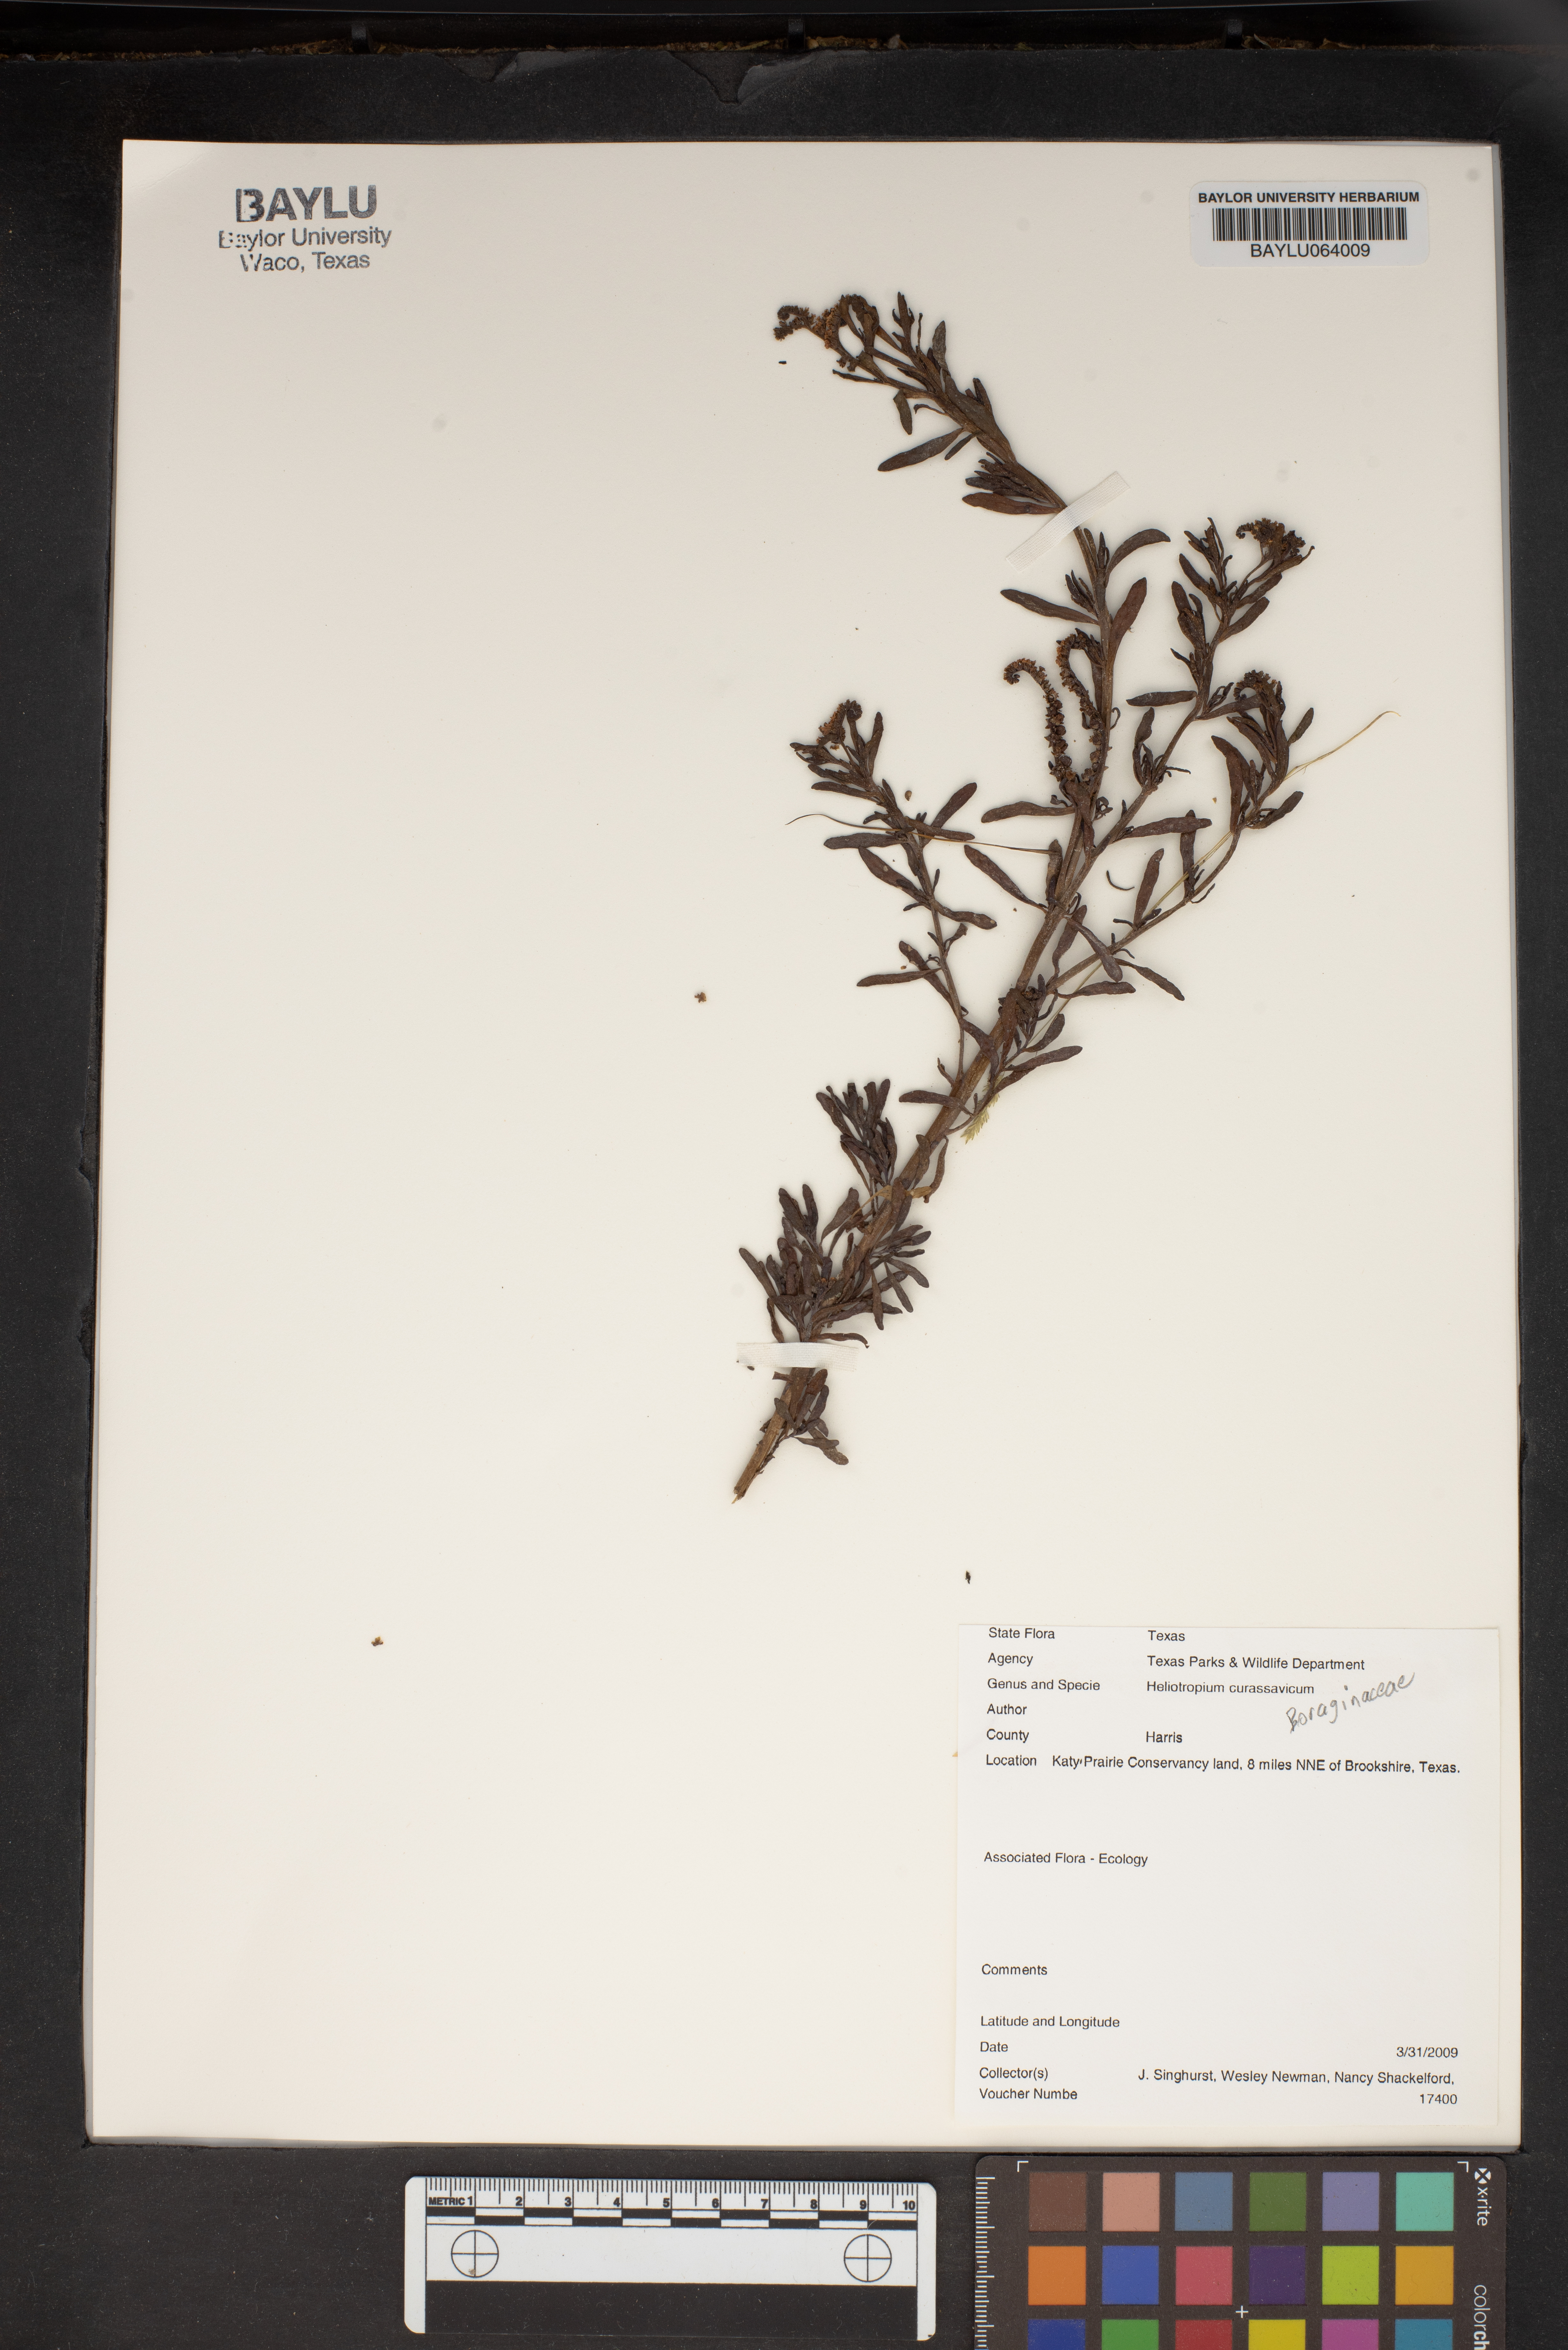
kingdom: Plantae
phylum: Tracheophyta
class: Magnoliopsida
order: Boraginales
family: Heliotropiaceae
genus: Heliotropium
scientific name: Heliotropium curassavicum
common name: Seaside heliotrope
